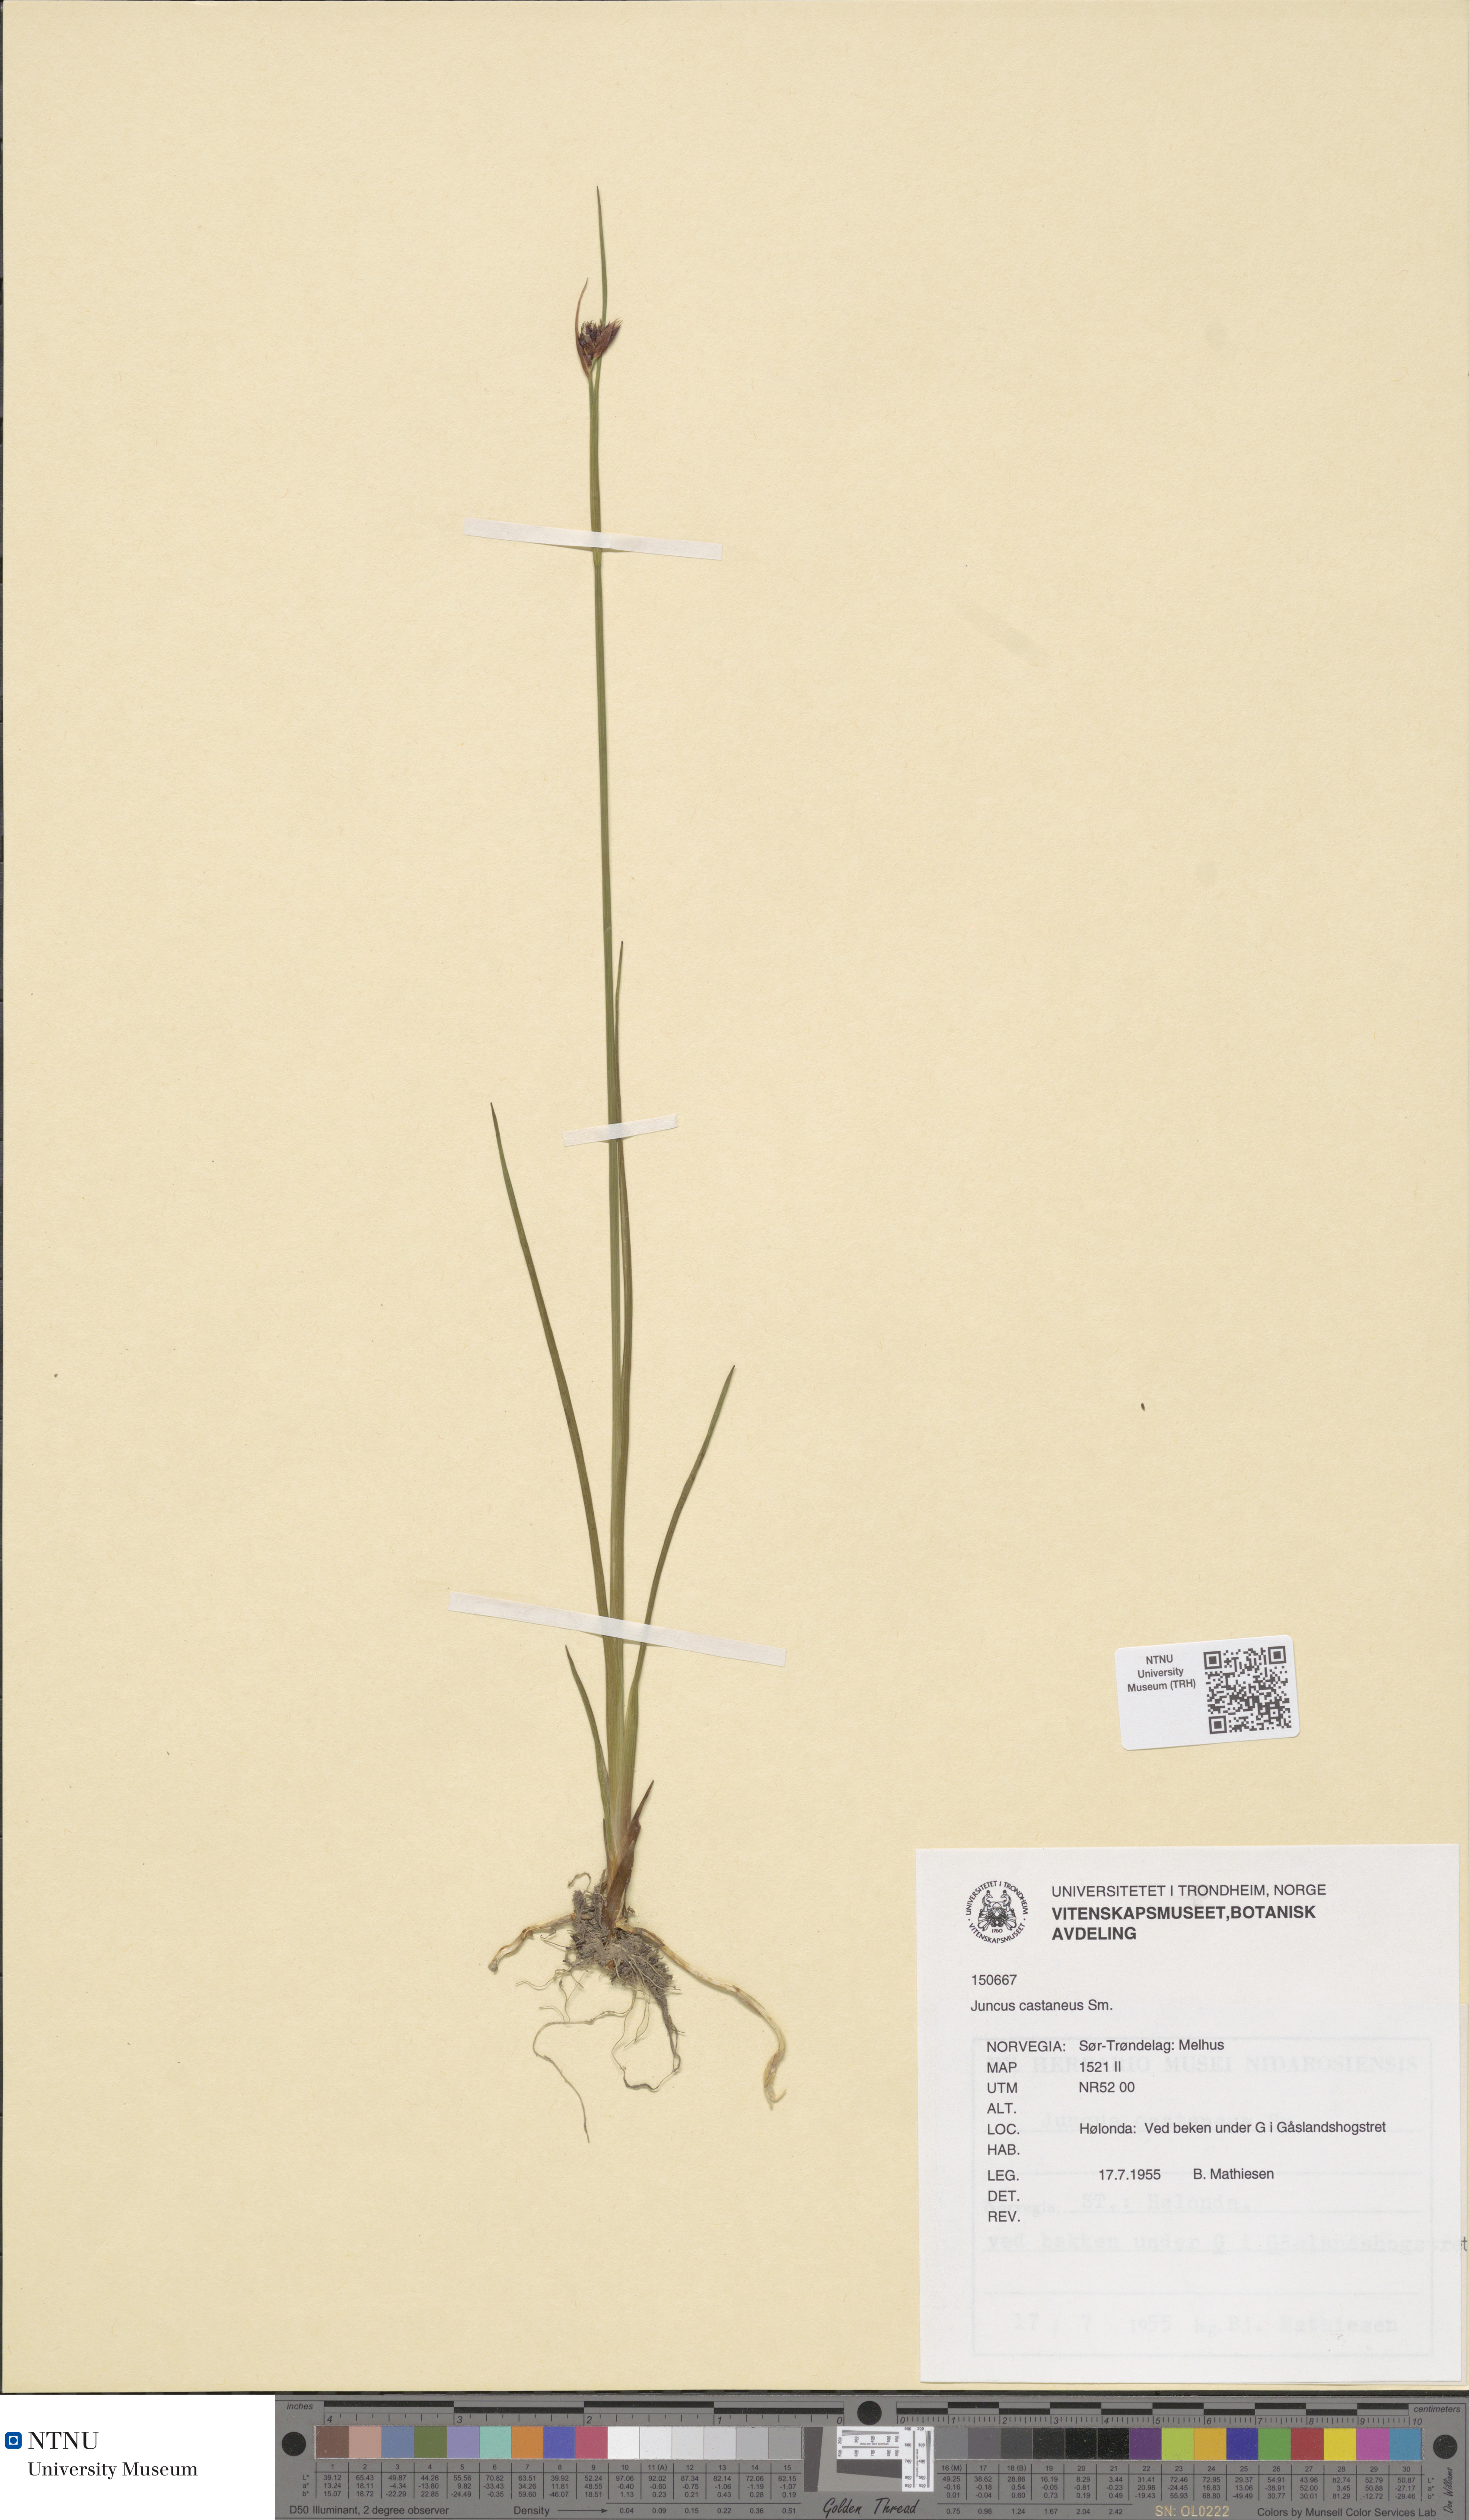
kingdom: Plantae
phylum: Tracheophyta
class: Liliopsida
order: Poales
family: Juncaceae
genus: Juncus
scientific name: Juncus castaneus
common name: Chestnut rush
